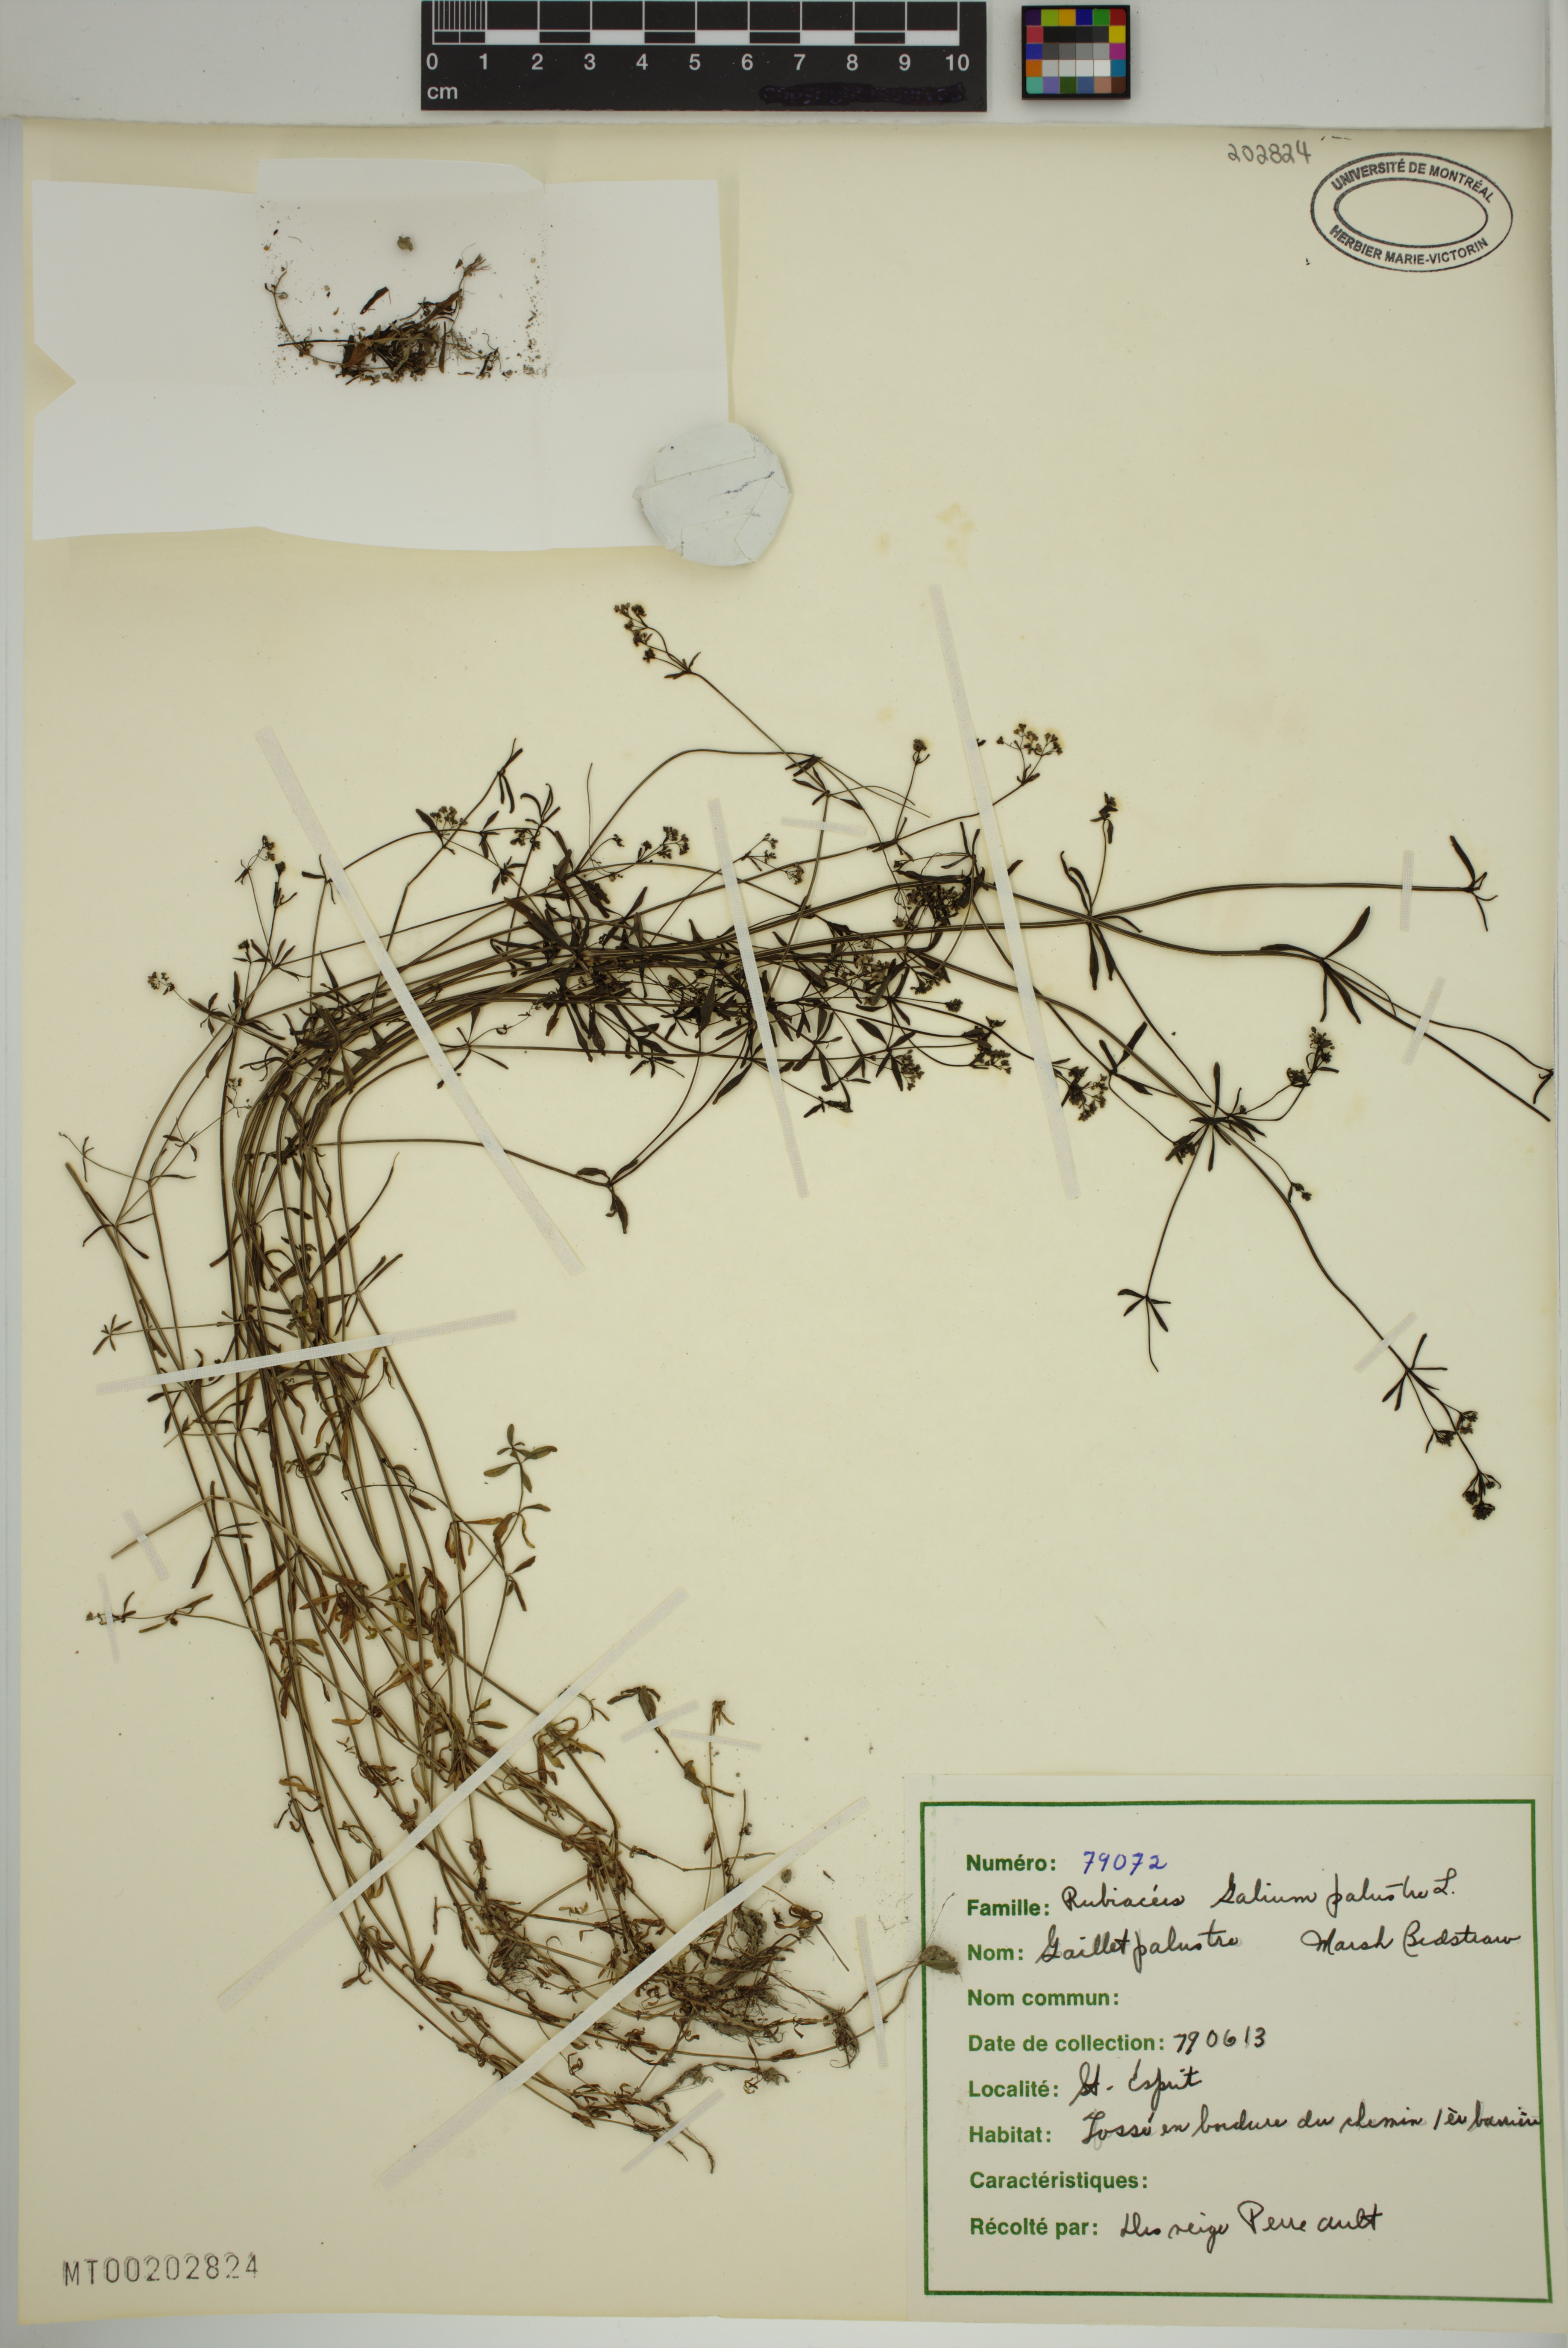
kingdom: Plantae
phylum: Tracheophyta
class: Magnoliopsida
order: Gentianales
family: Rubiaceae
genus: Galium
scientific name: Galium palustre
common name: Common marsh-bedstraw
